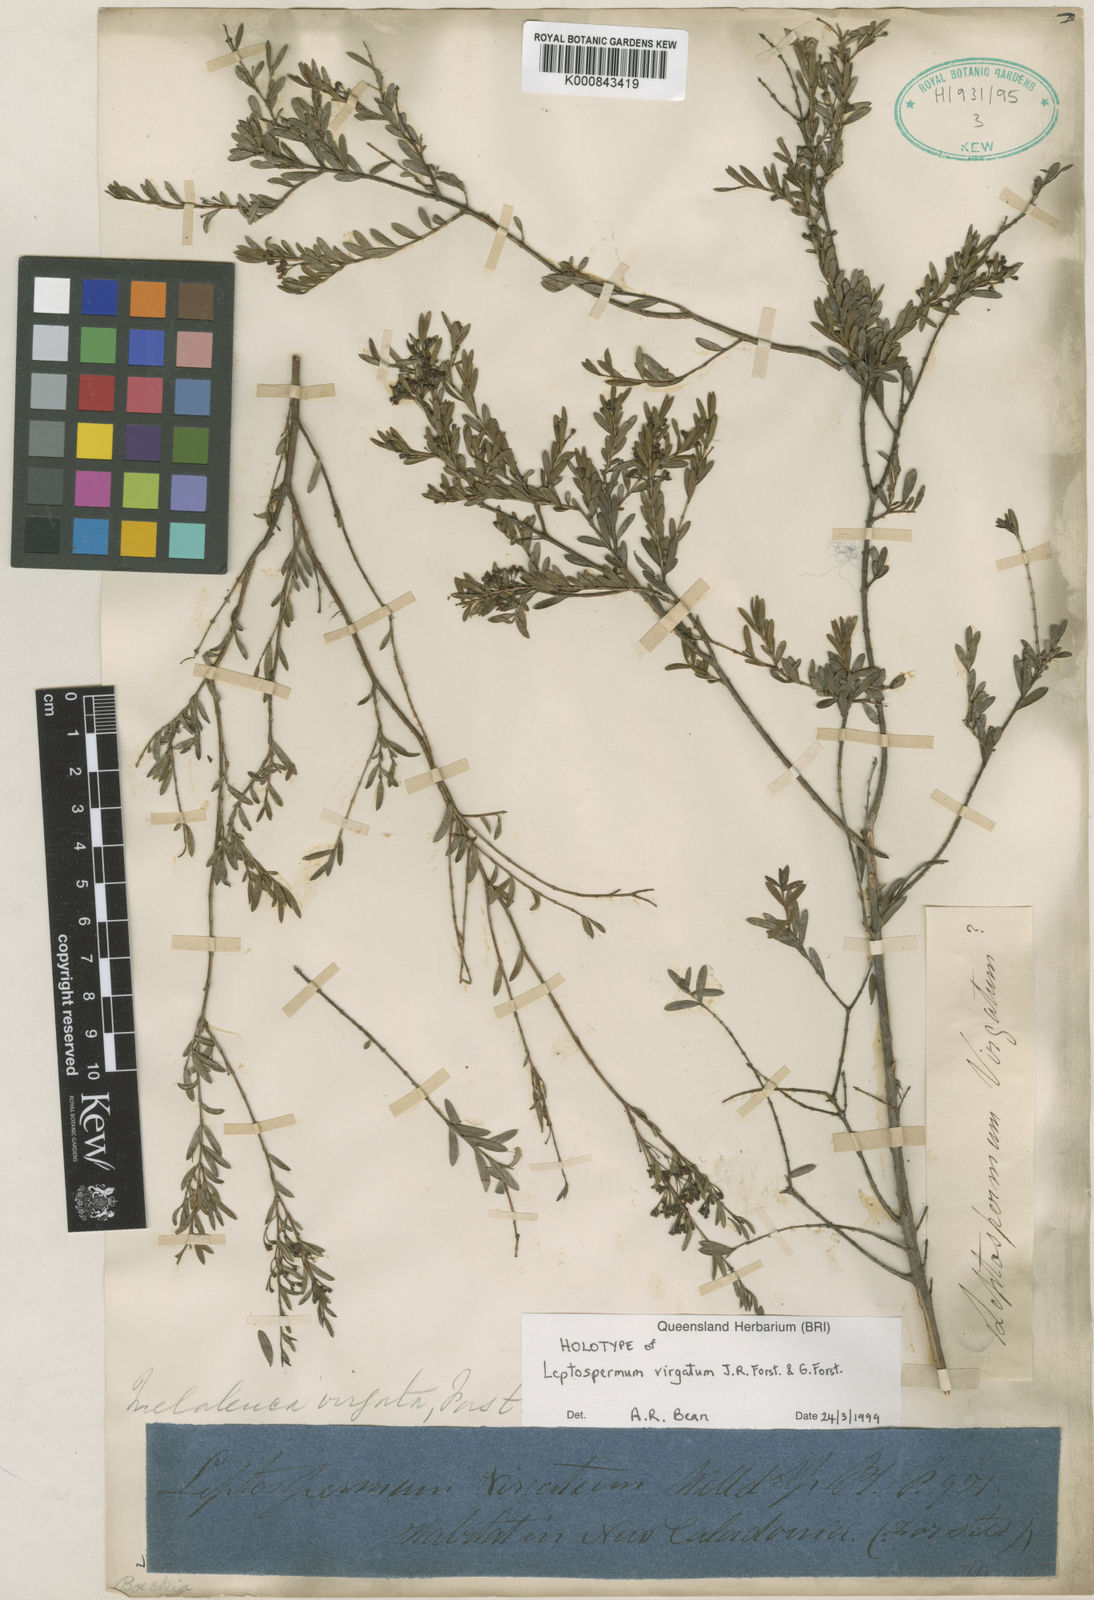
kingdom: Plantae
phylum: Tracheophyta
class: Magnoliopsida
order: Myrtales
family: Myrtaceae
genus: Sannantha
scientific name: Sannantha virgata
